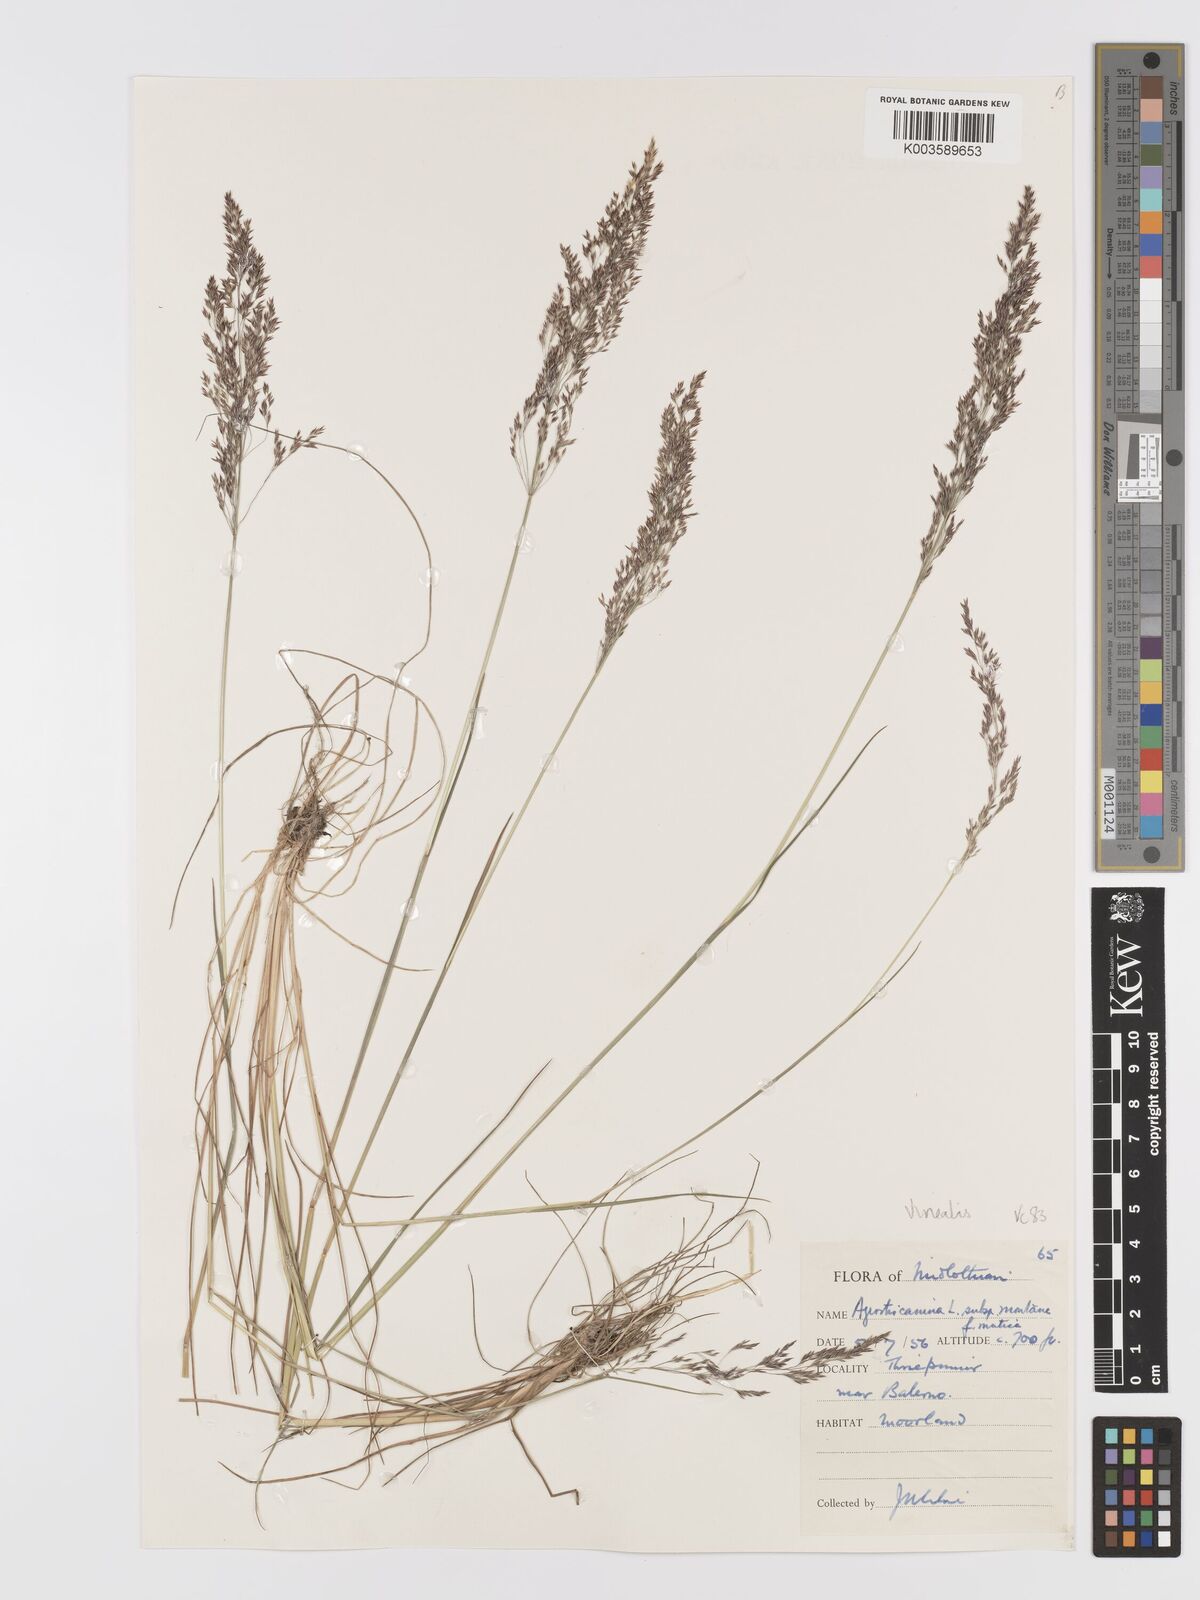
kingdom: Plantae
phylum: Tracheophyta
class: Liliopsida
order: Poales
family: Poaceae
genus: Agrostis
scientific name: Agrostis
